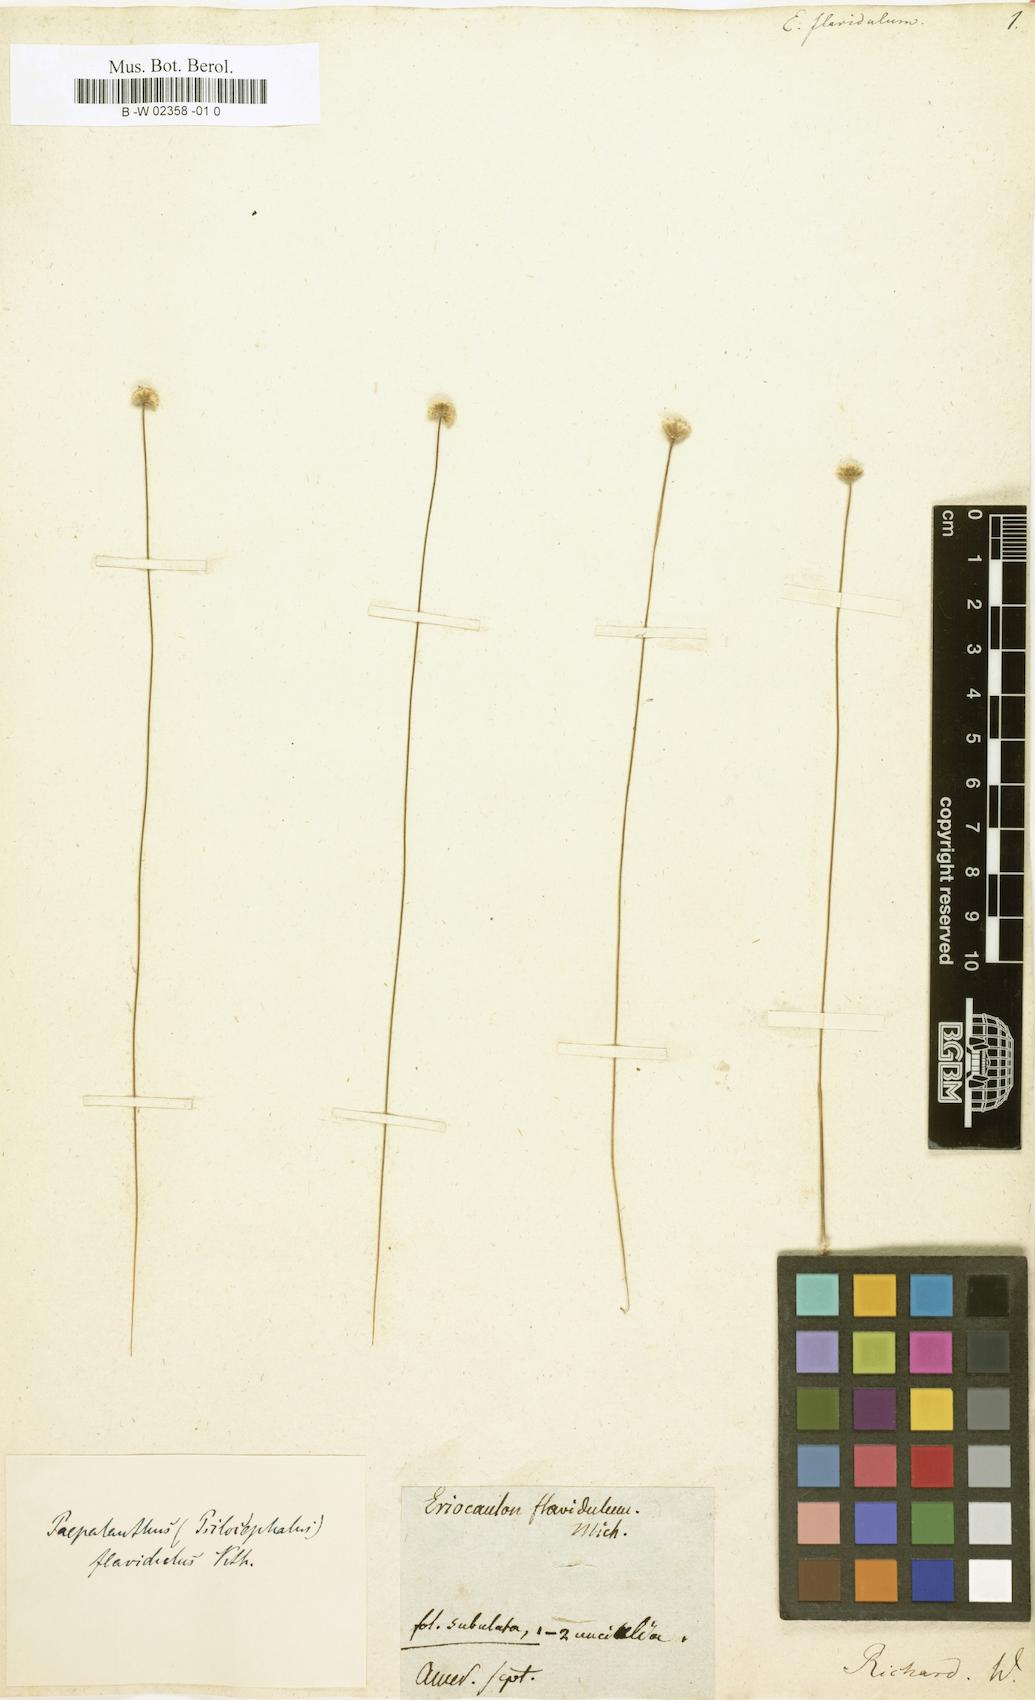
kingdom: Plantae
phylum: Tracheophyta
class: Liliopsida
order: Poales
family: Eriocaulaceae
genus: Syngonanthus
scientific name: Syngonanthus flavidulus
